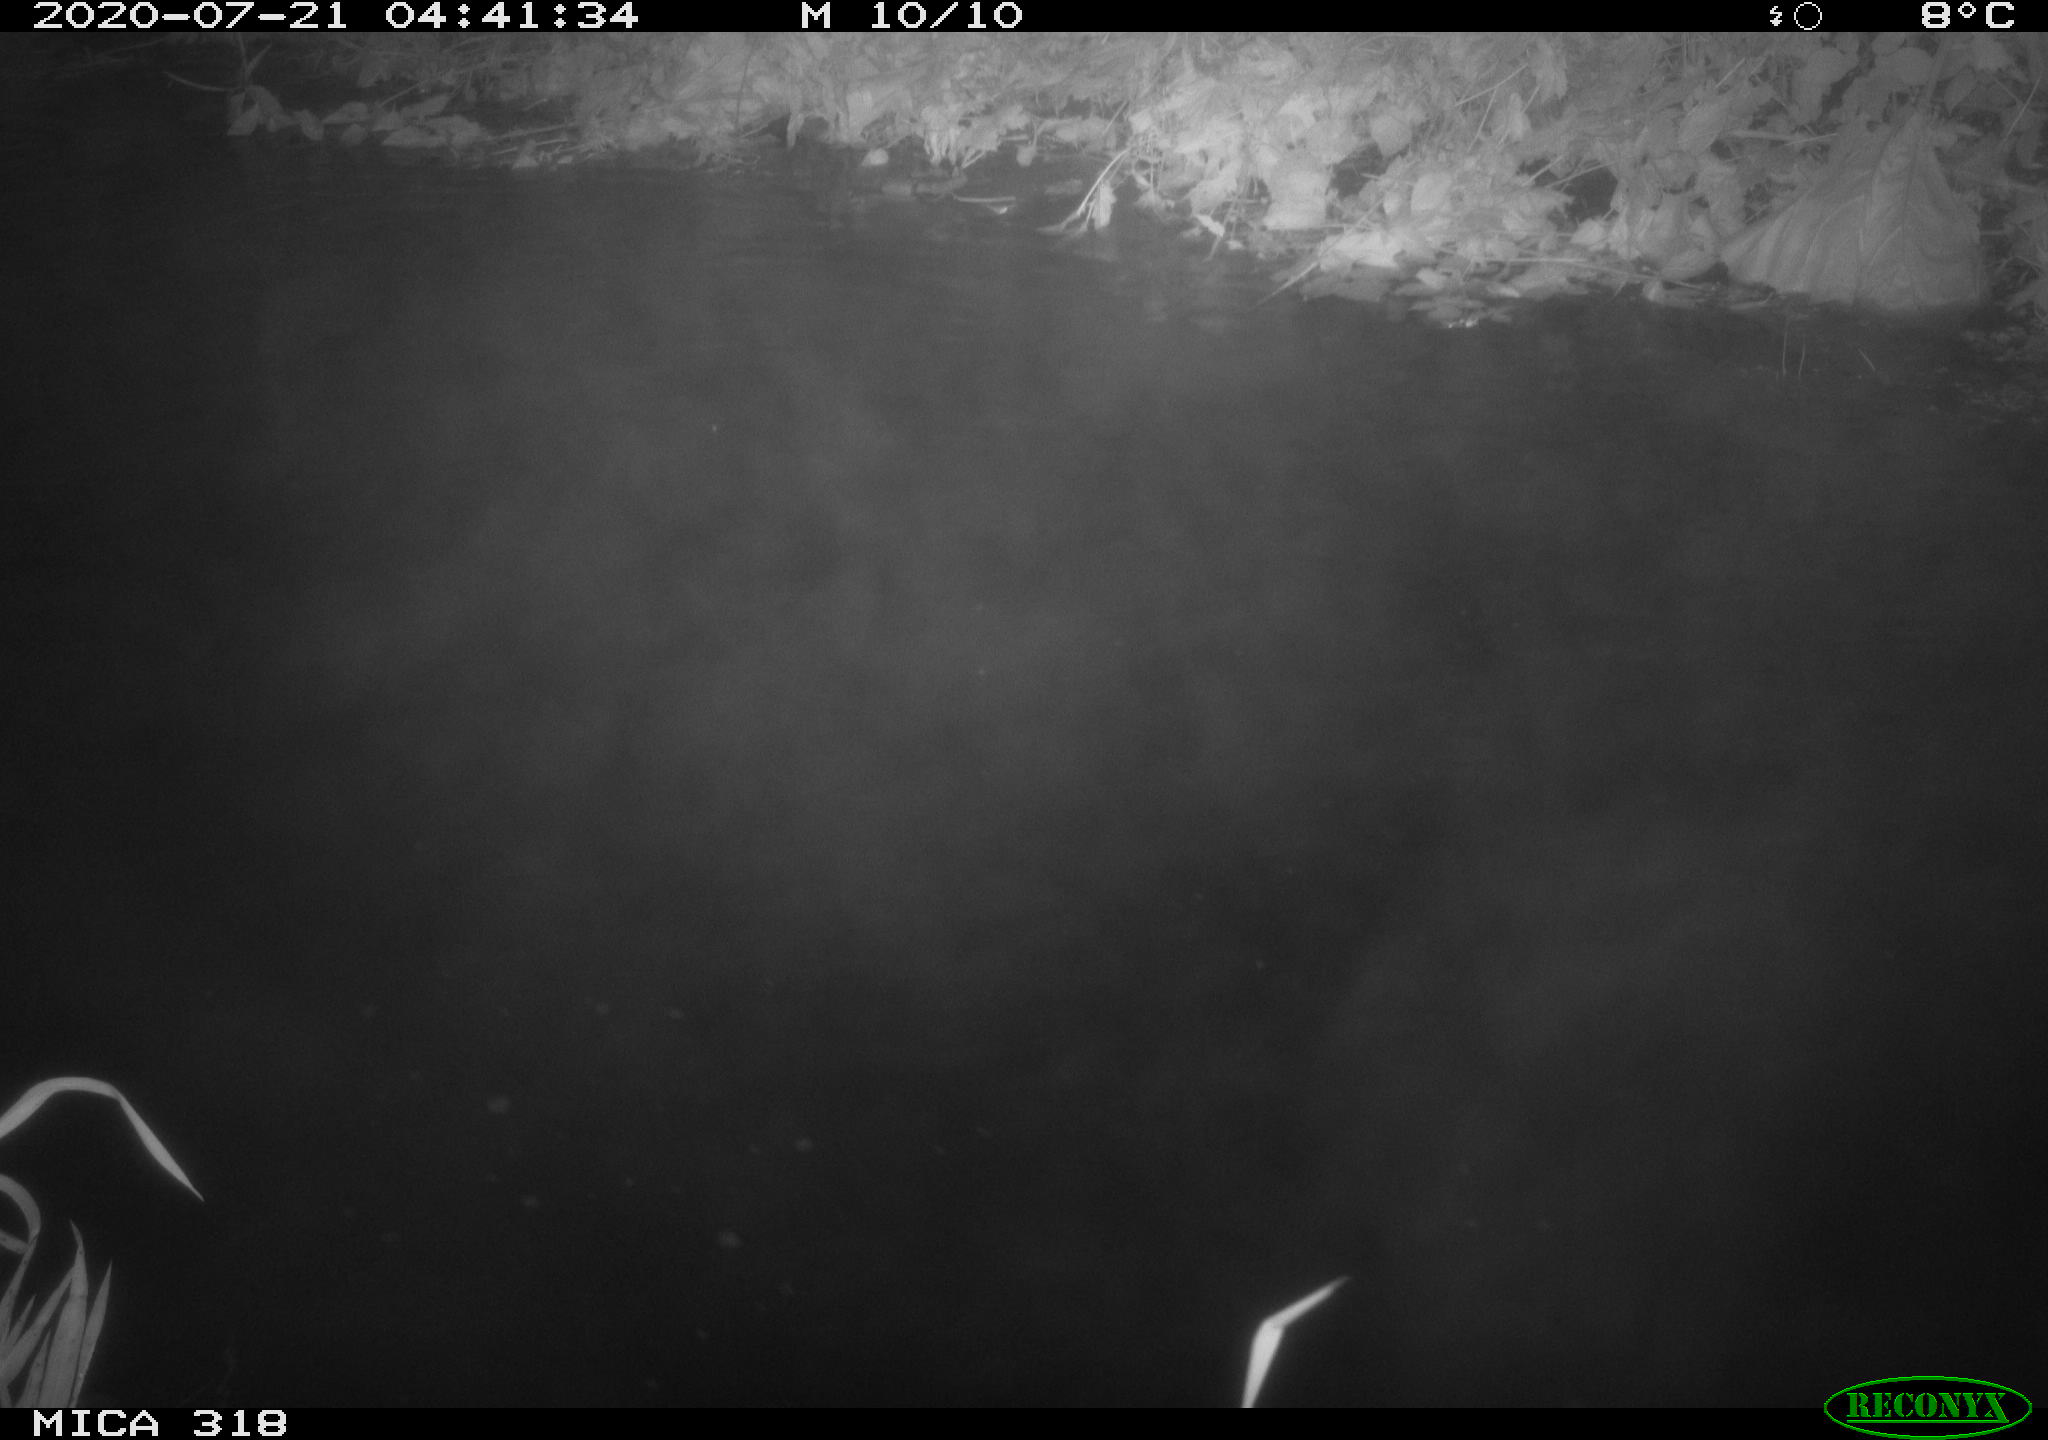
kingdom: Animalia
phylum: Chordata
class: Aves
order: Anseriformes
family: Anatidae
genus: Anas
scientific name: Anas platyrhynchos
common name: Mallard
